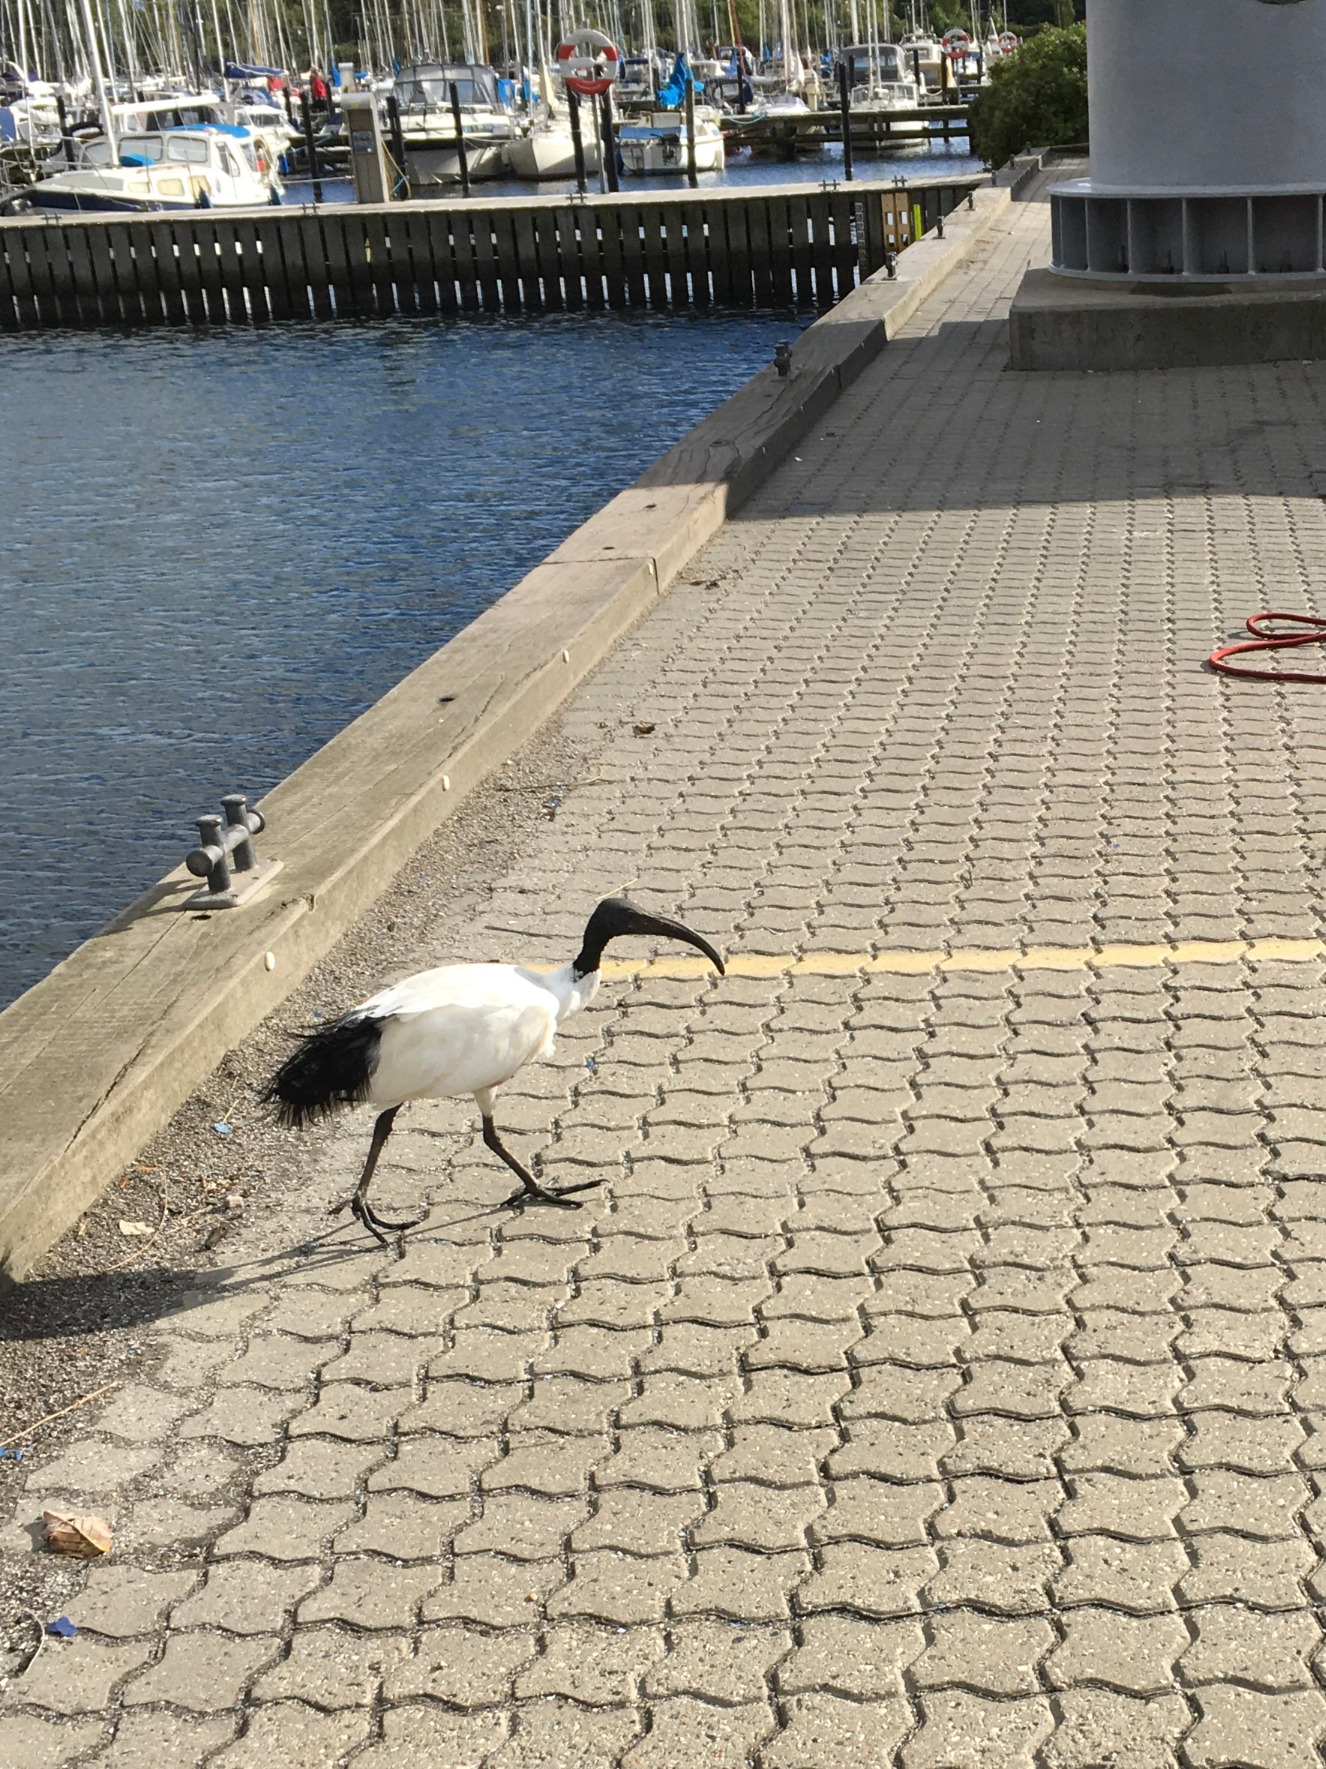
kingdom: Animalia
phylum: Chordata
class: Aves
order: Pelecaniformes
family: Threskiornithidae
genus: Threskiornis
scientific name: Threskiornis aethiopicus
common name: Hellig ibis
